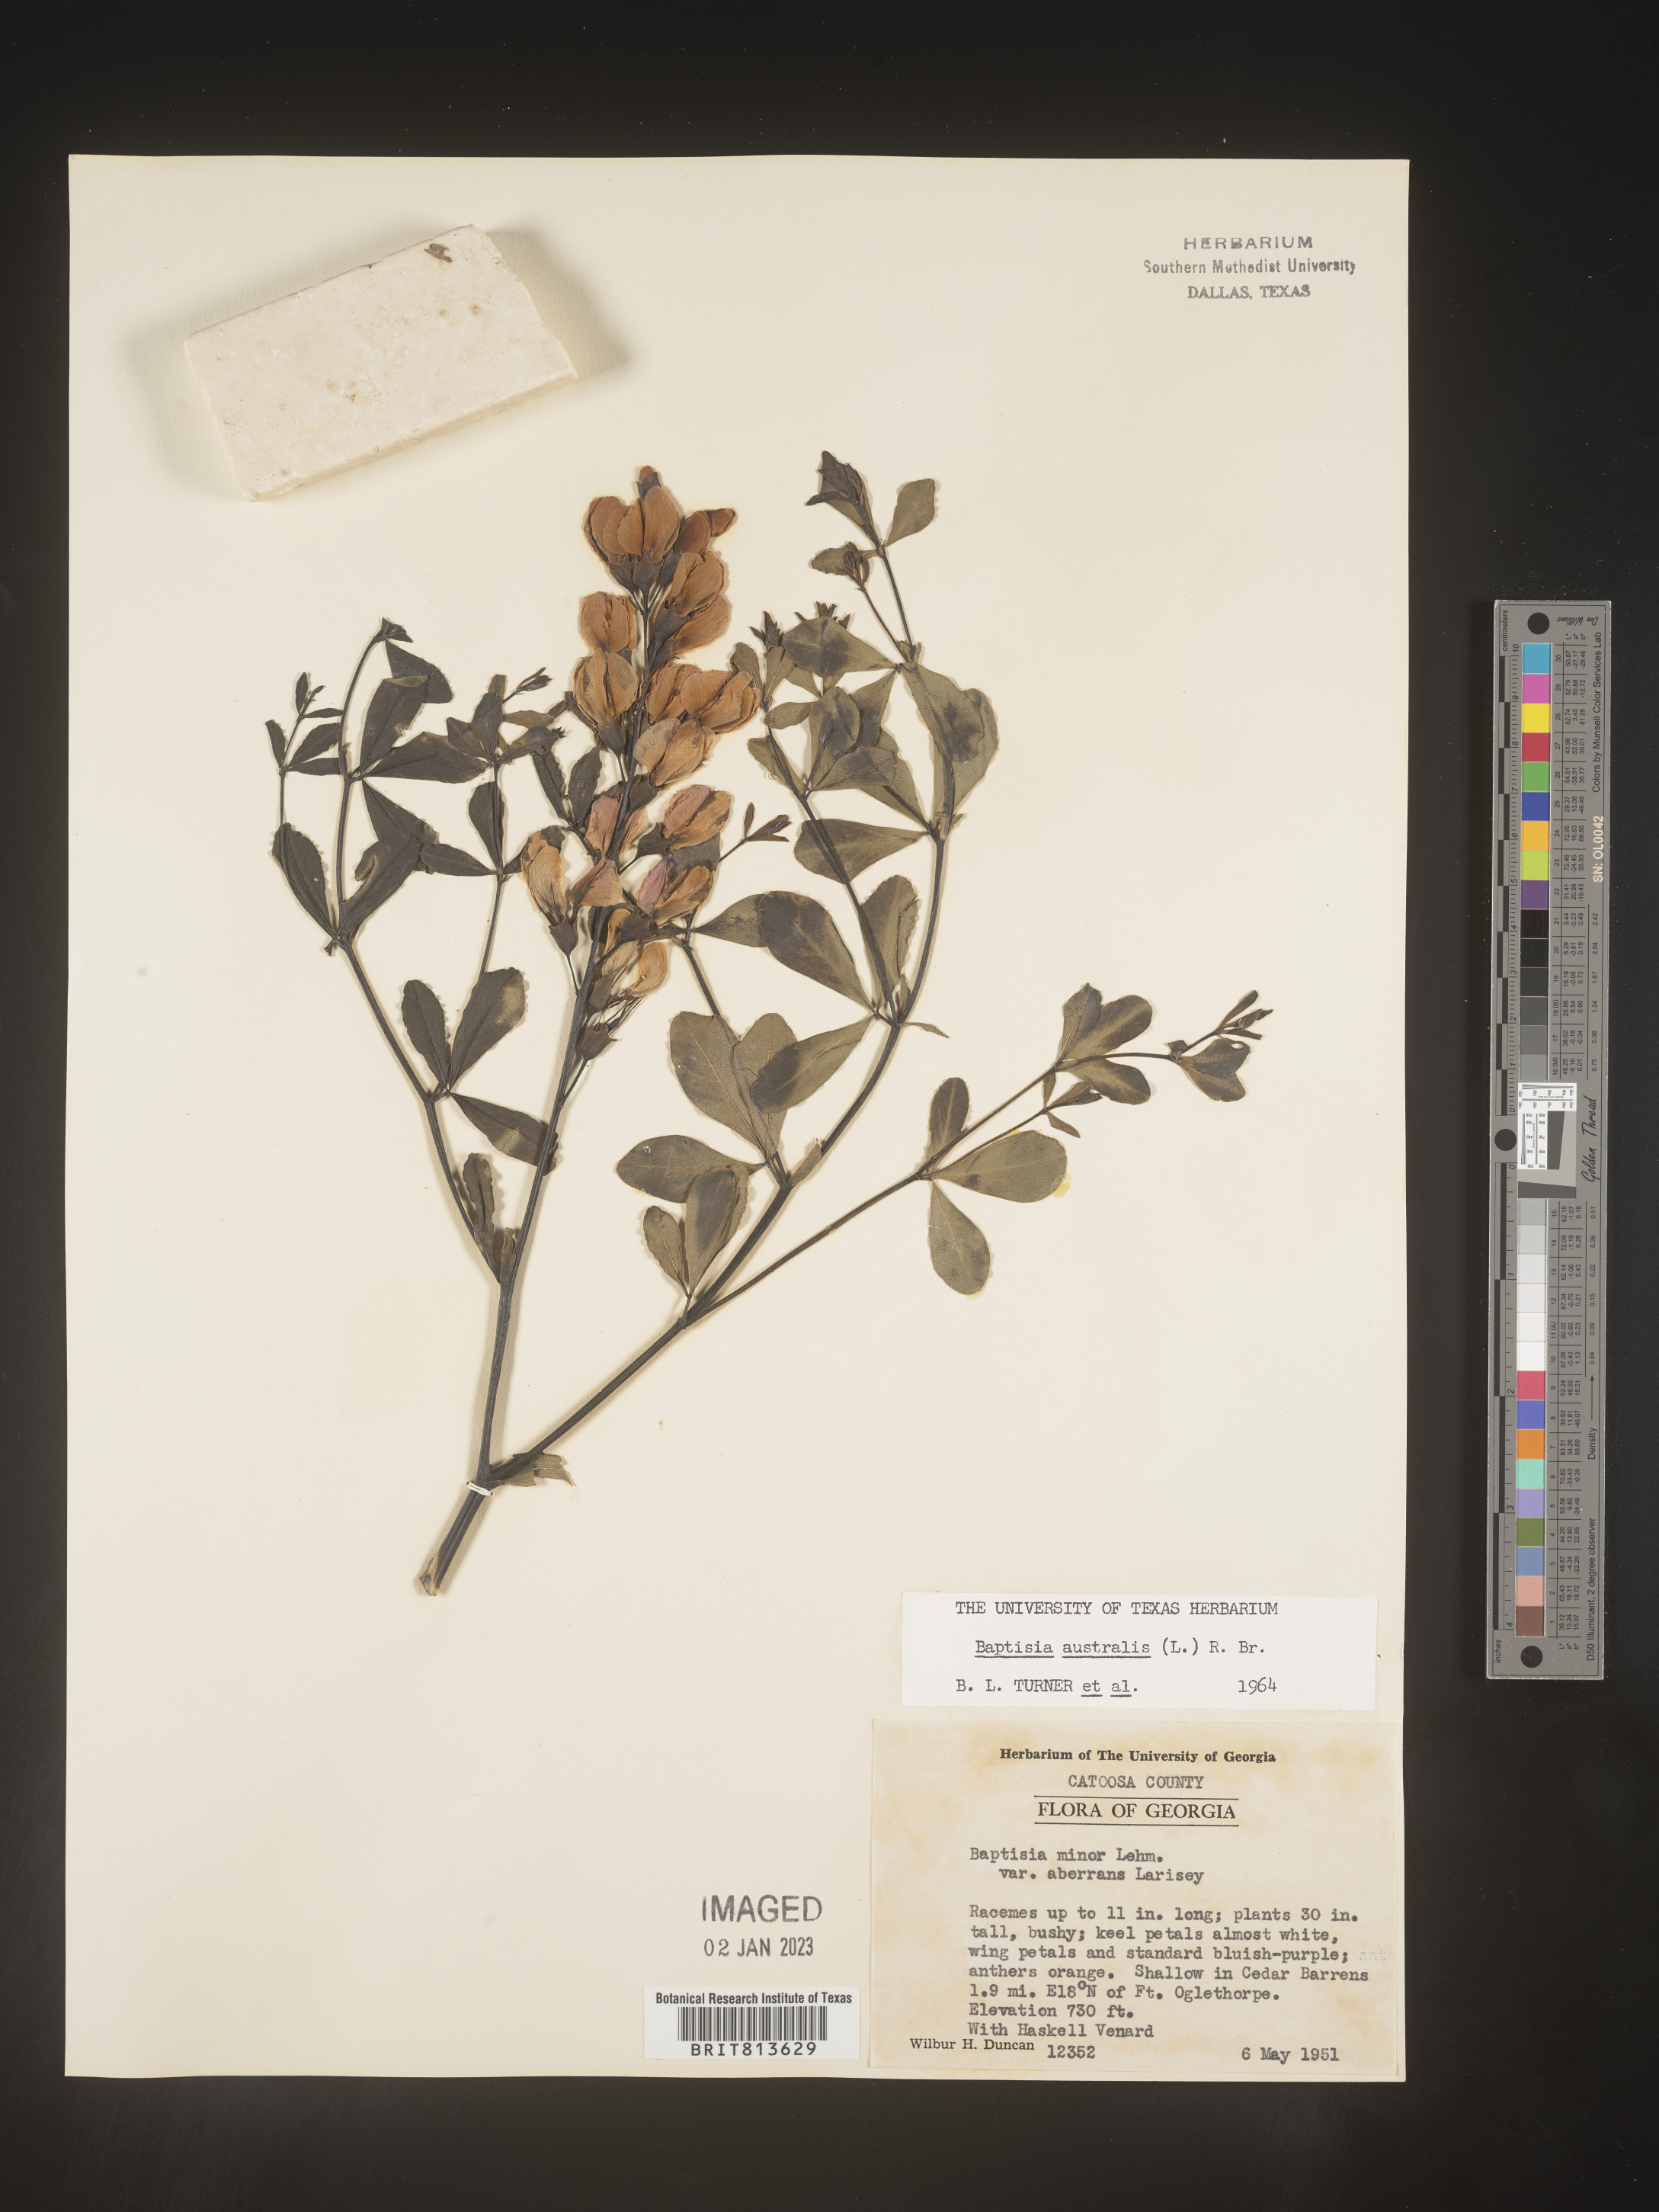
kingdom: Plantae
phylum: Tracheophyta
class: Magnoliopsida
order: Fabales
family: Fabaceae
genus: Baptisia
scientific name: Baptisia australis
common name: Blue false indigo
